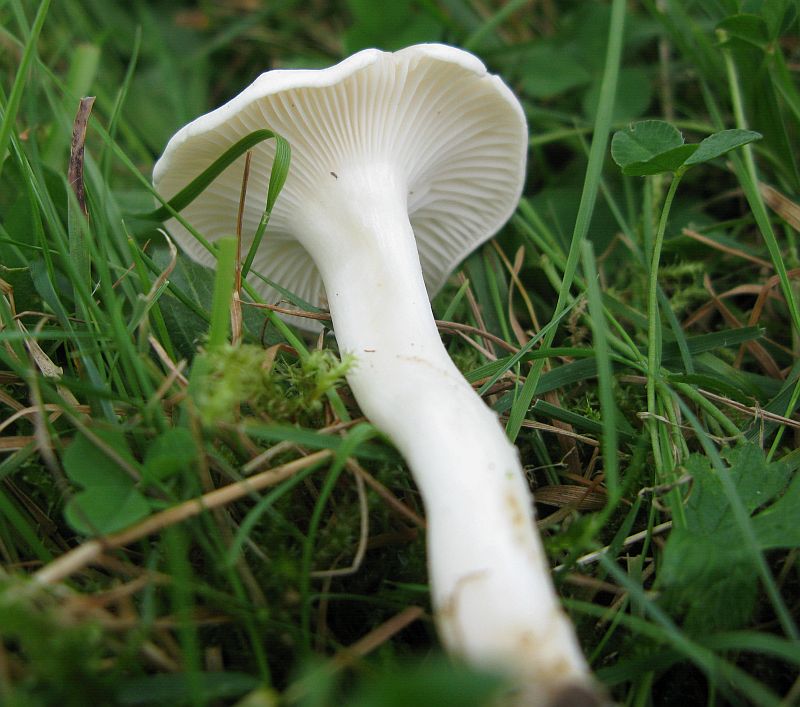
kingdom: Fungi
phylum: Basidiomycota
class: Agaricomycetes
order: Agaricales
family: Hygrophoraceae
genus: Cuphophyllus
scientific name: Cuphophyllus pratensis
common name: bleg vokshat
